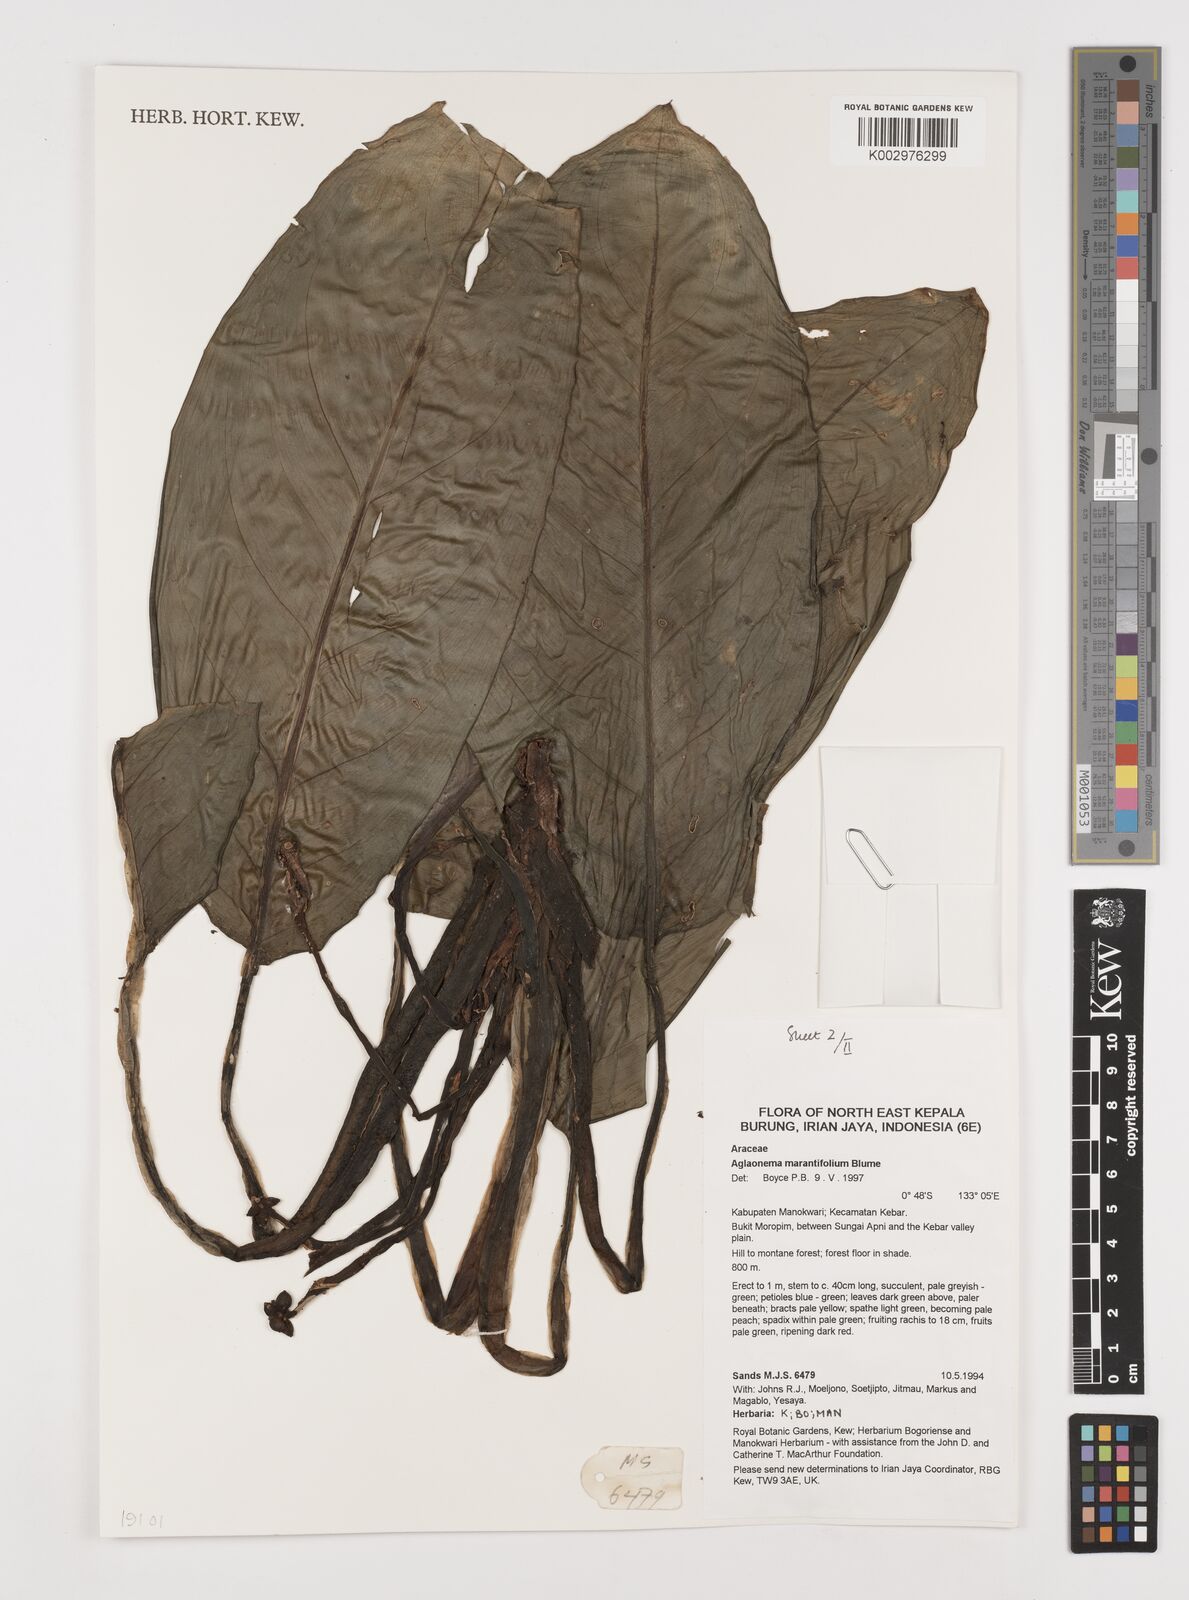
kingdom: Plantae
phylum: Tracheophyta
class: Liliopsida
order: Alismatales
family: Araceae
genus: Aglaonema
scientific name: Aglaonema marantifolium
